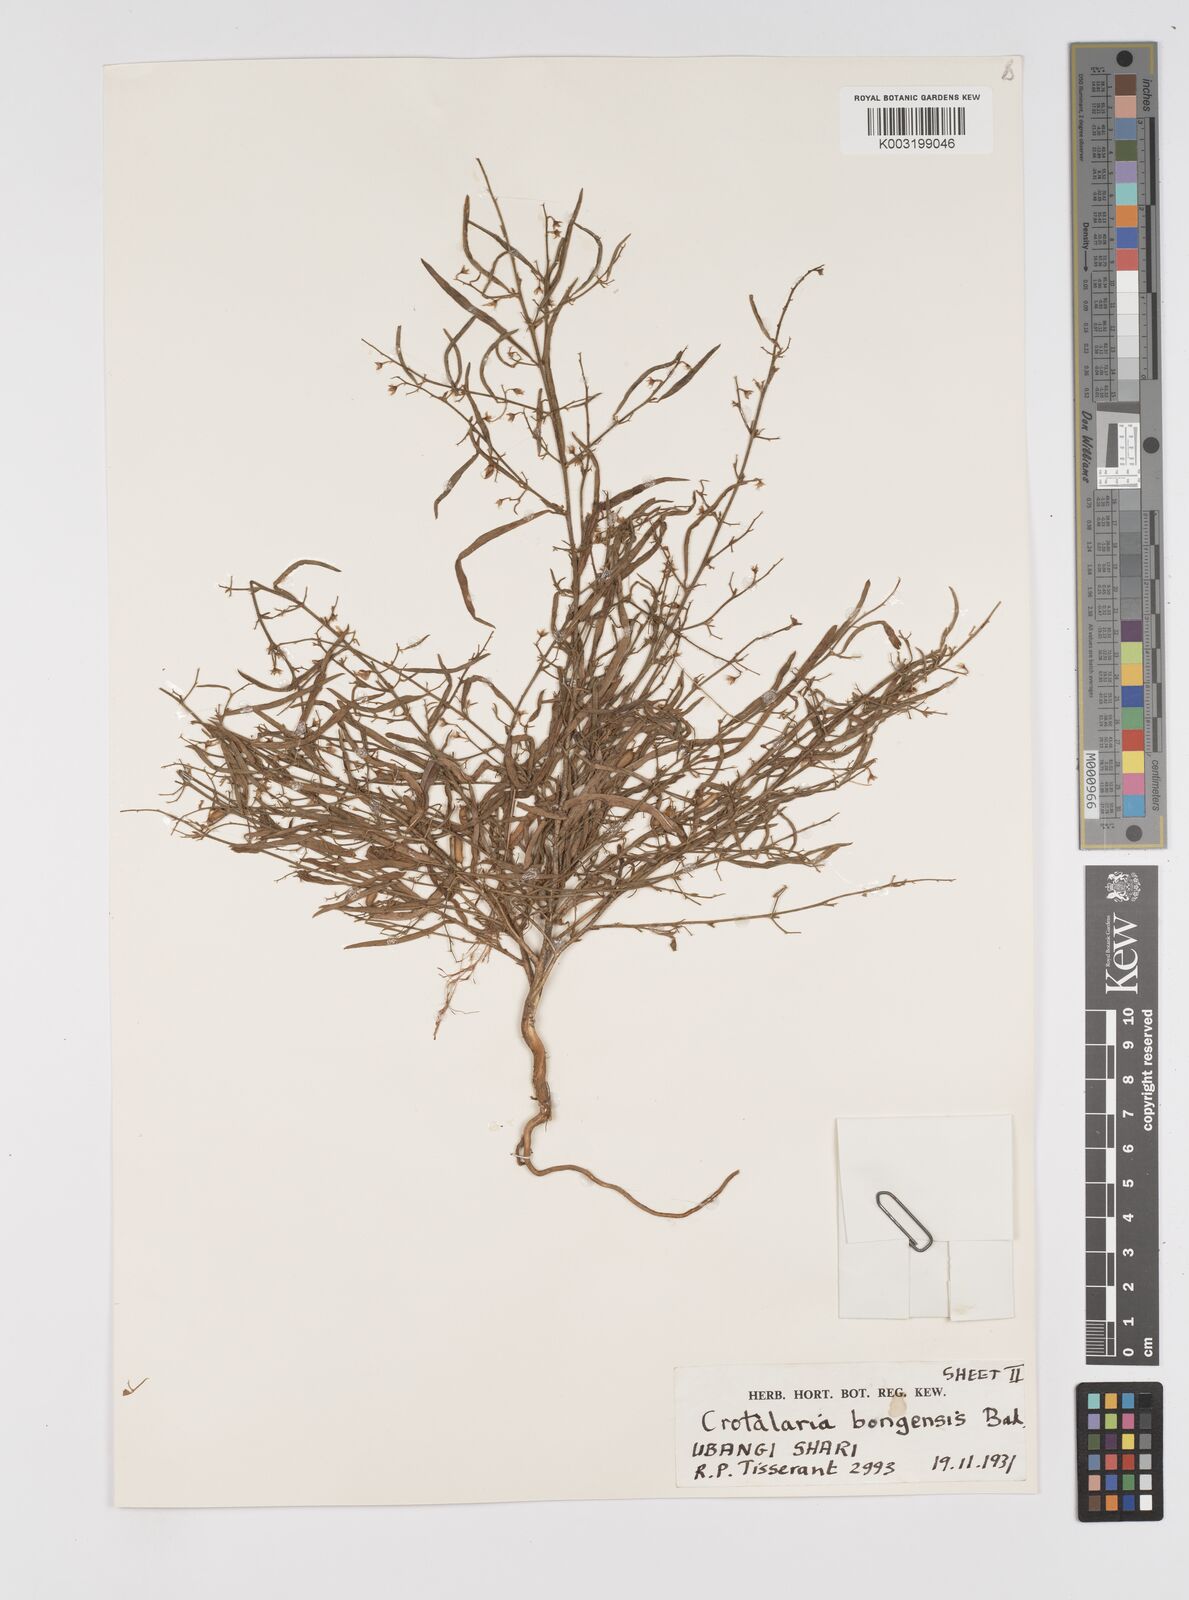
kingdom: Plantae
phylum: Tracheophyta
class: Magnoliopsida
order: Fabales
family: Fabaceae
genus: Crotalaria
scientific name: Crotalaria bongensis
